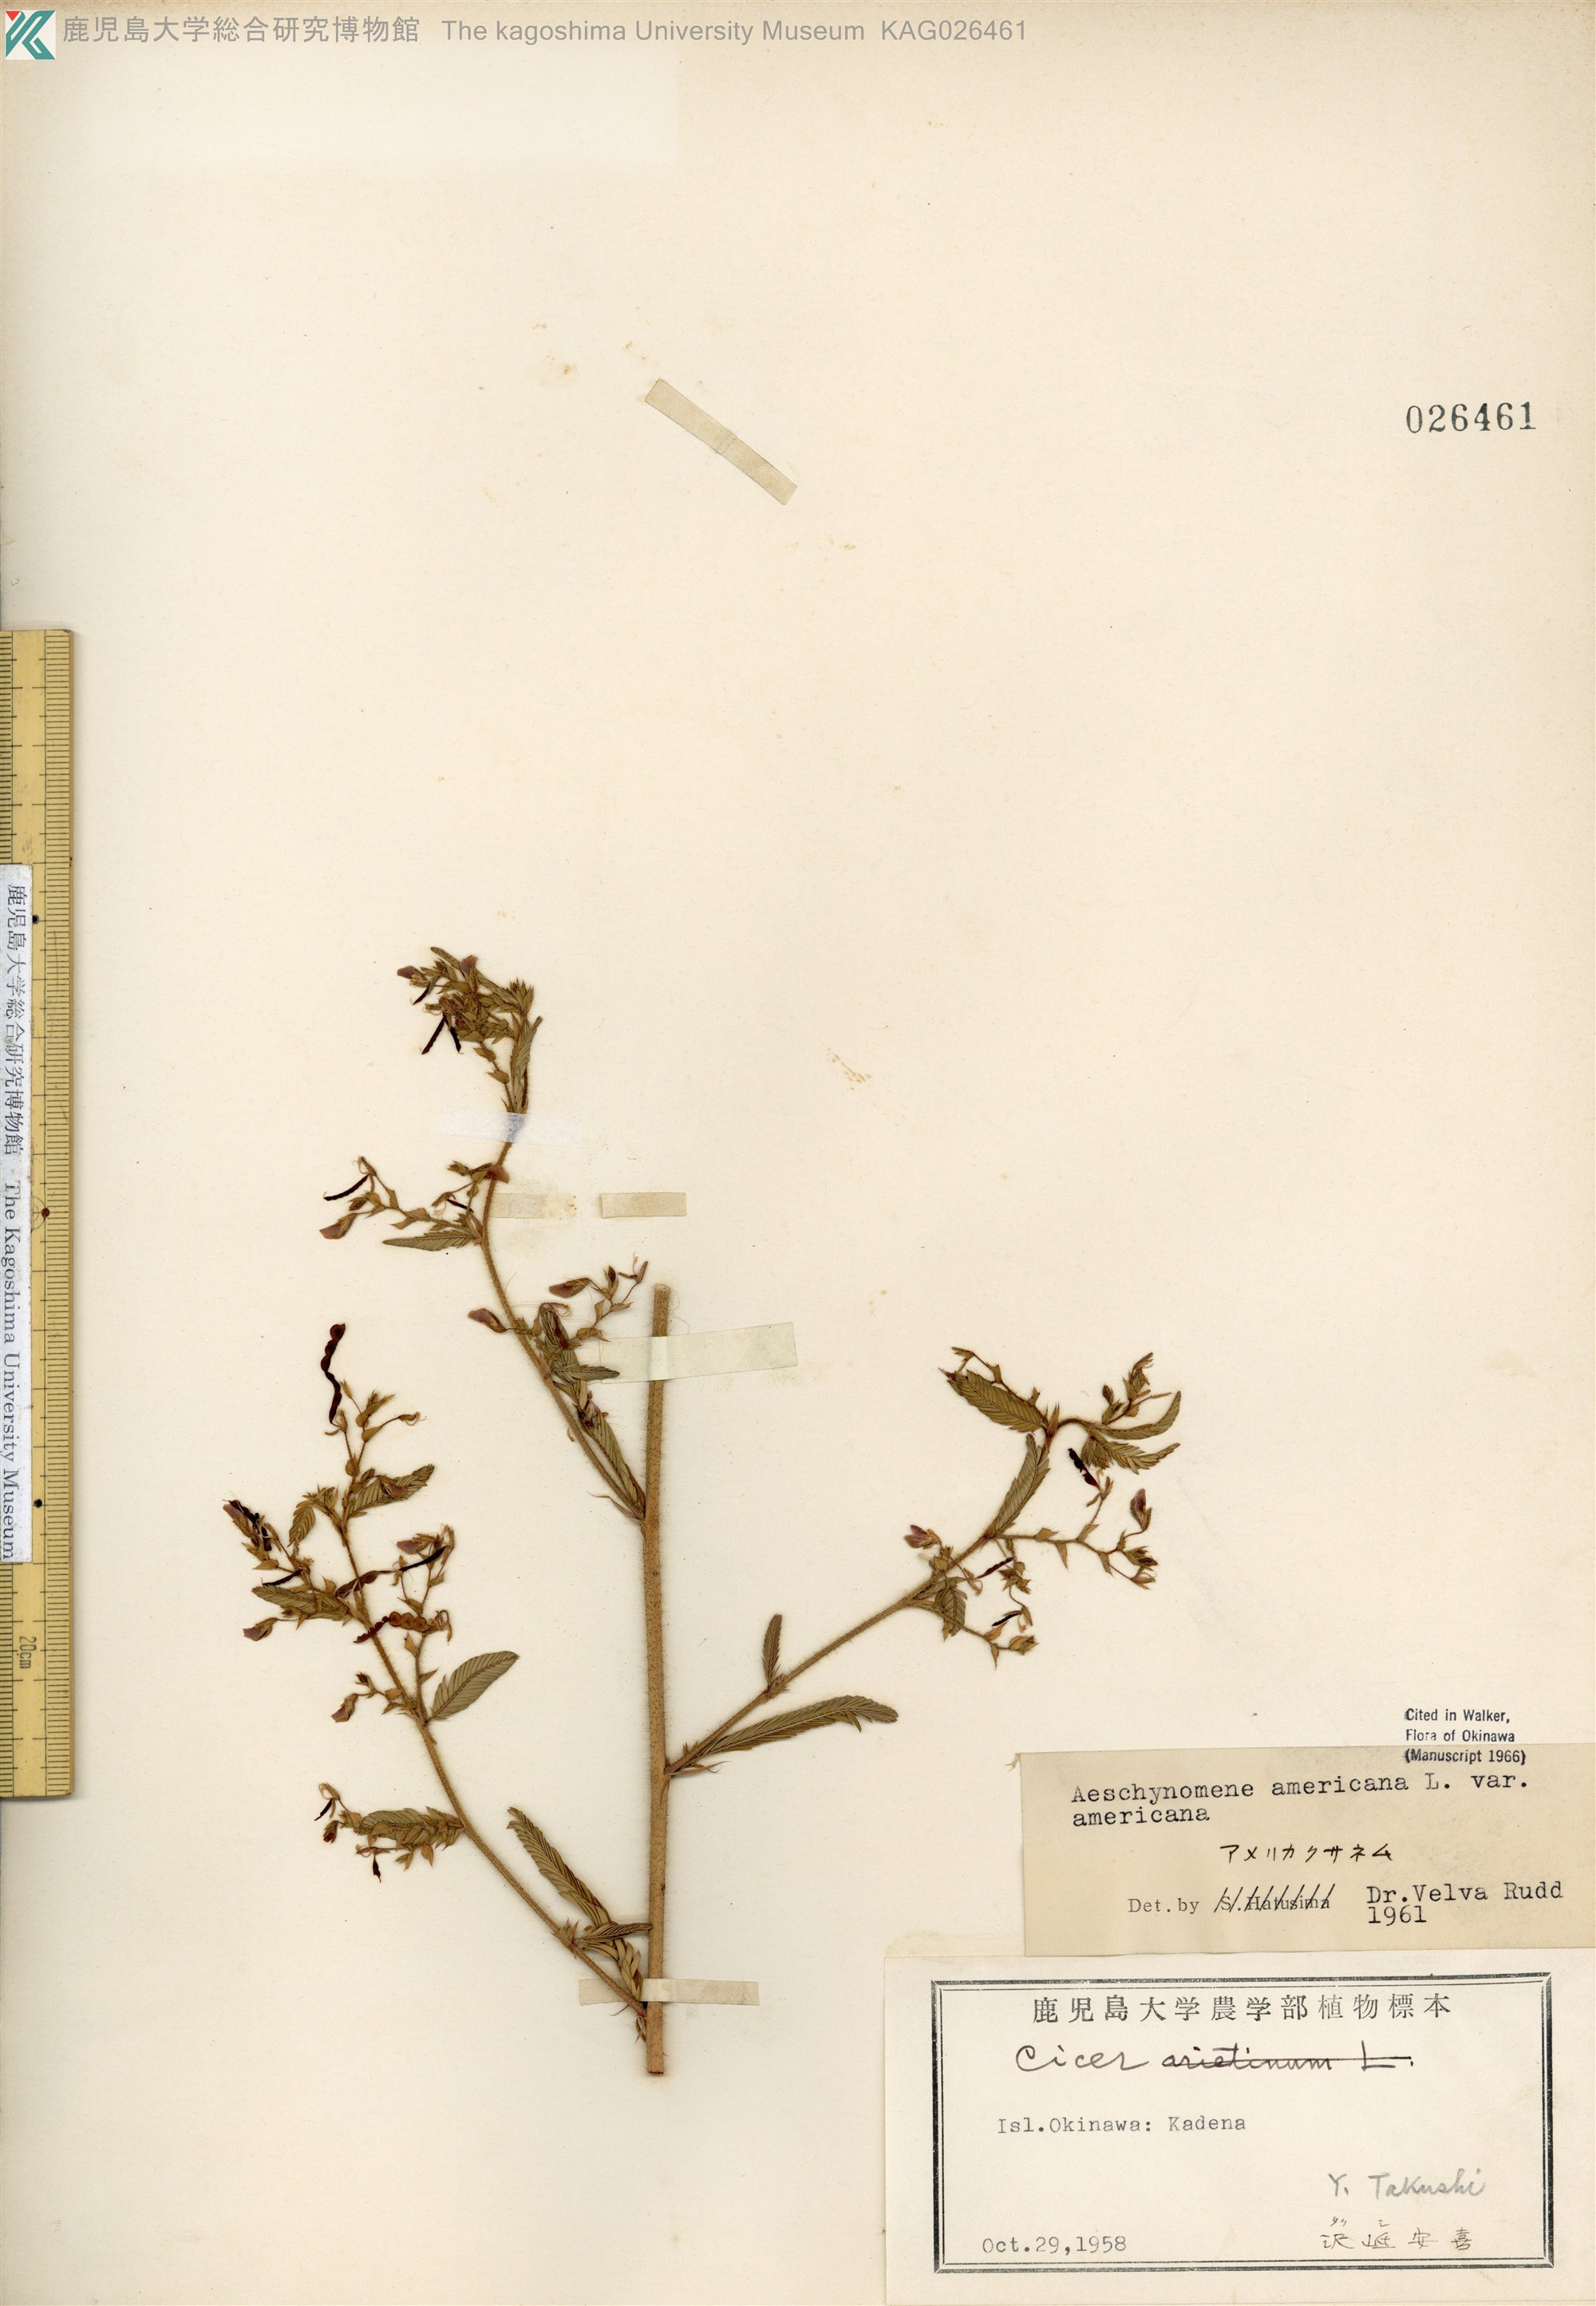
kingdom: Plantae
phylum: Tracheophyta
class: Magnoliopsida
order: Fabales
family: Fabaceae
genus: Aeschynomene
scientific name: Aeschynomene americana
